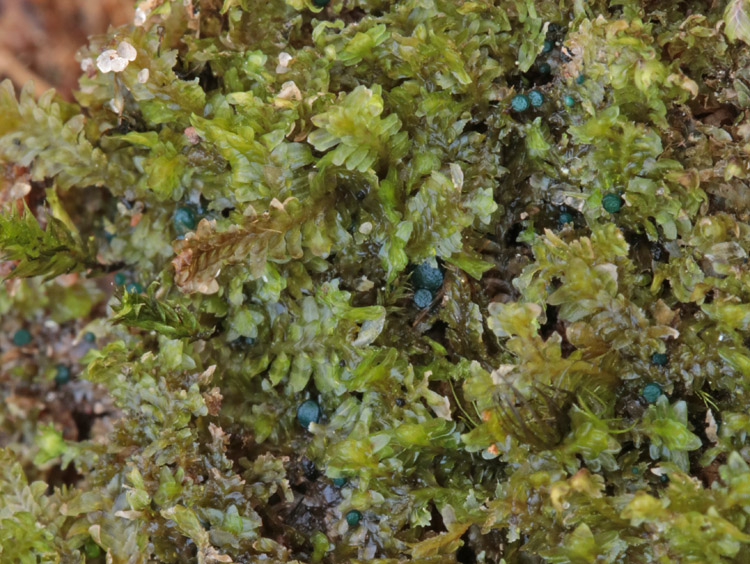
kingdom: Fungi
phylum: Ascomycota
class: Leotiomycetes
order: Leotiales
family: Mniaeciaceae
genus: Mniaecia
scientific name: Mniaecia jungermanniae
